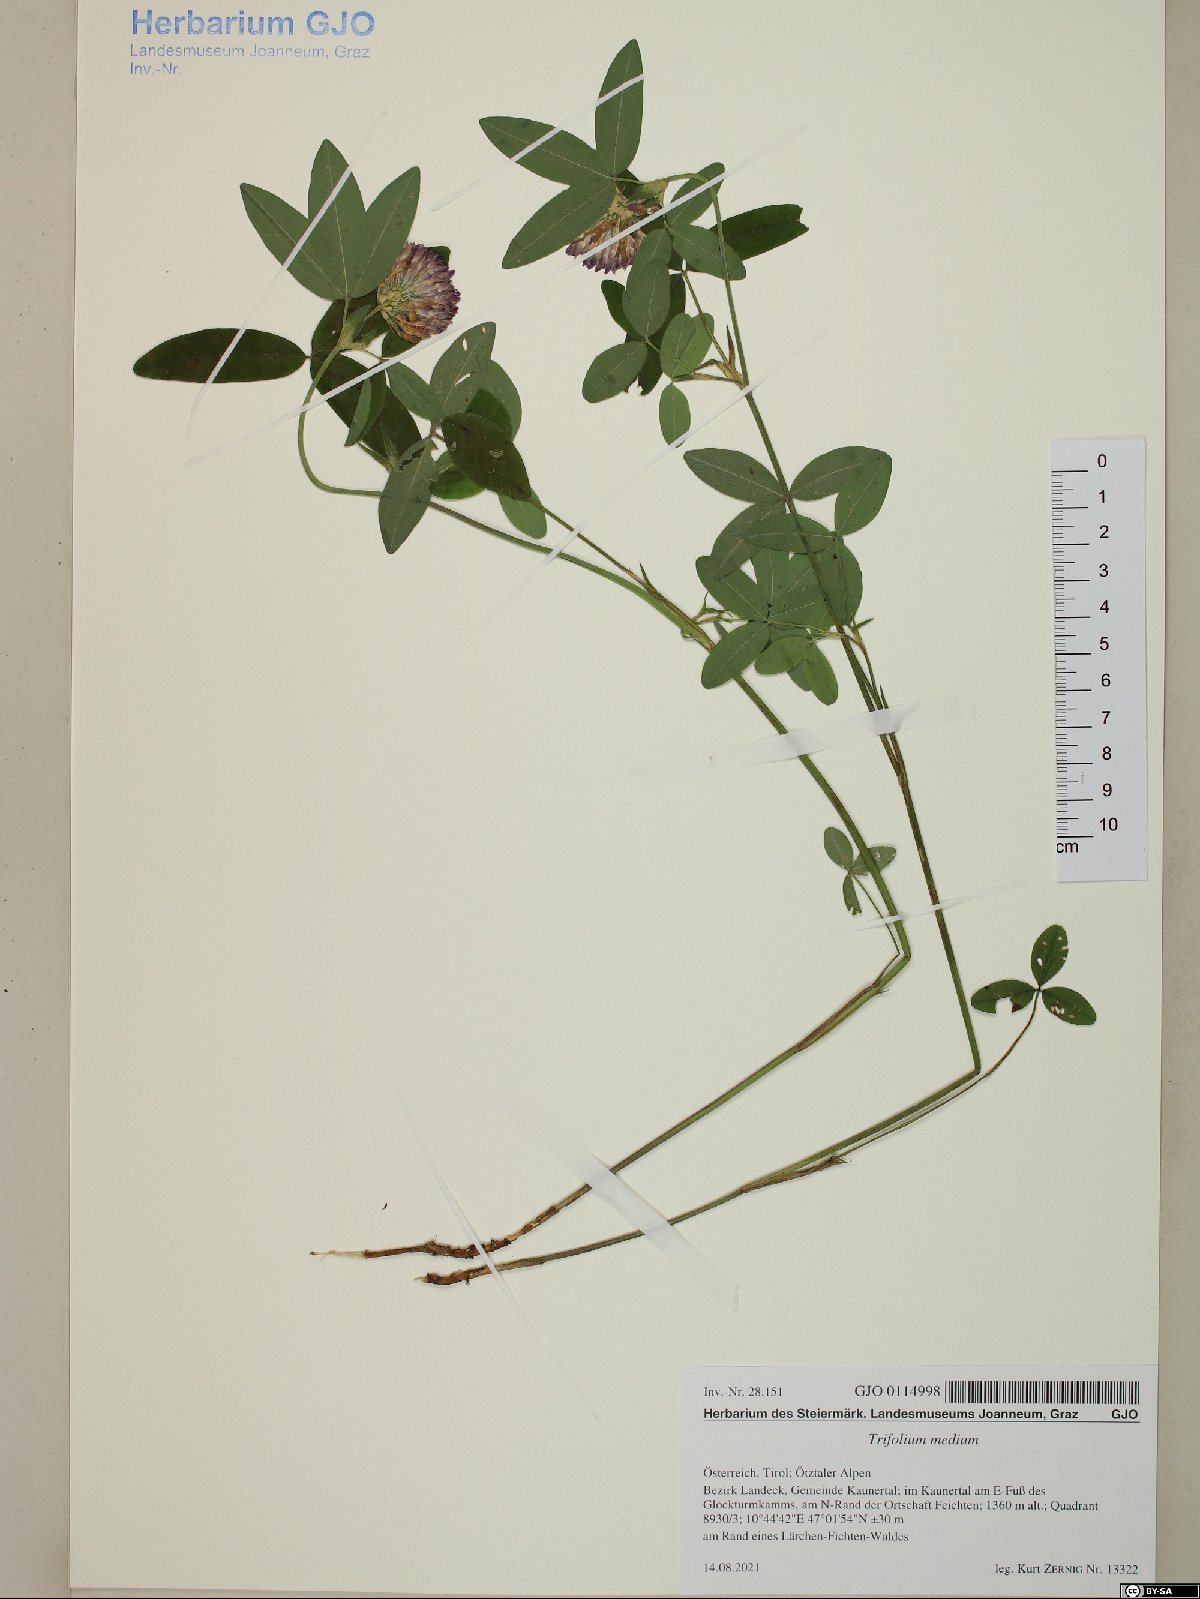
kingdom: Plantae
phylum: Tracheophyta
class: Magnoliopsida
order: Fabales
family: Fabaceae
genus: Trifolium
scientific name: Trifolium medium
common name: Zigzag clover
